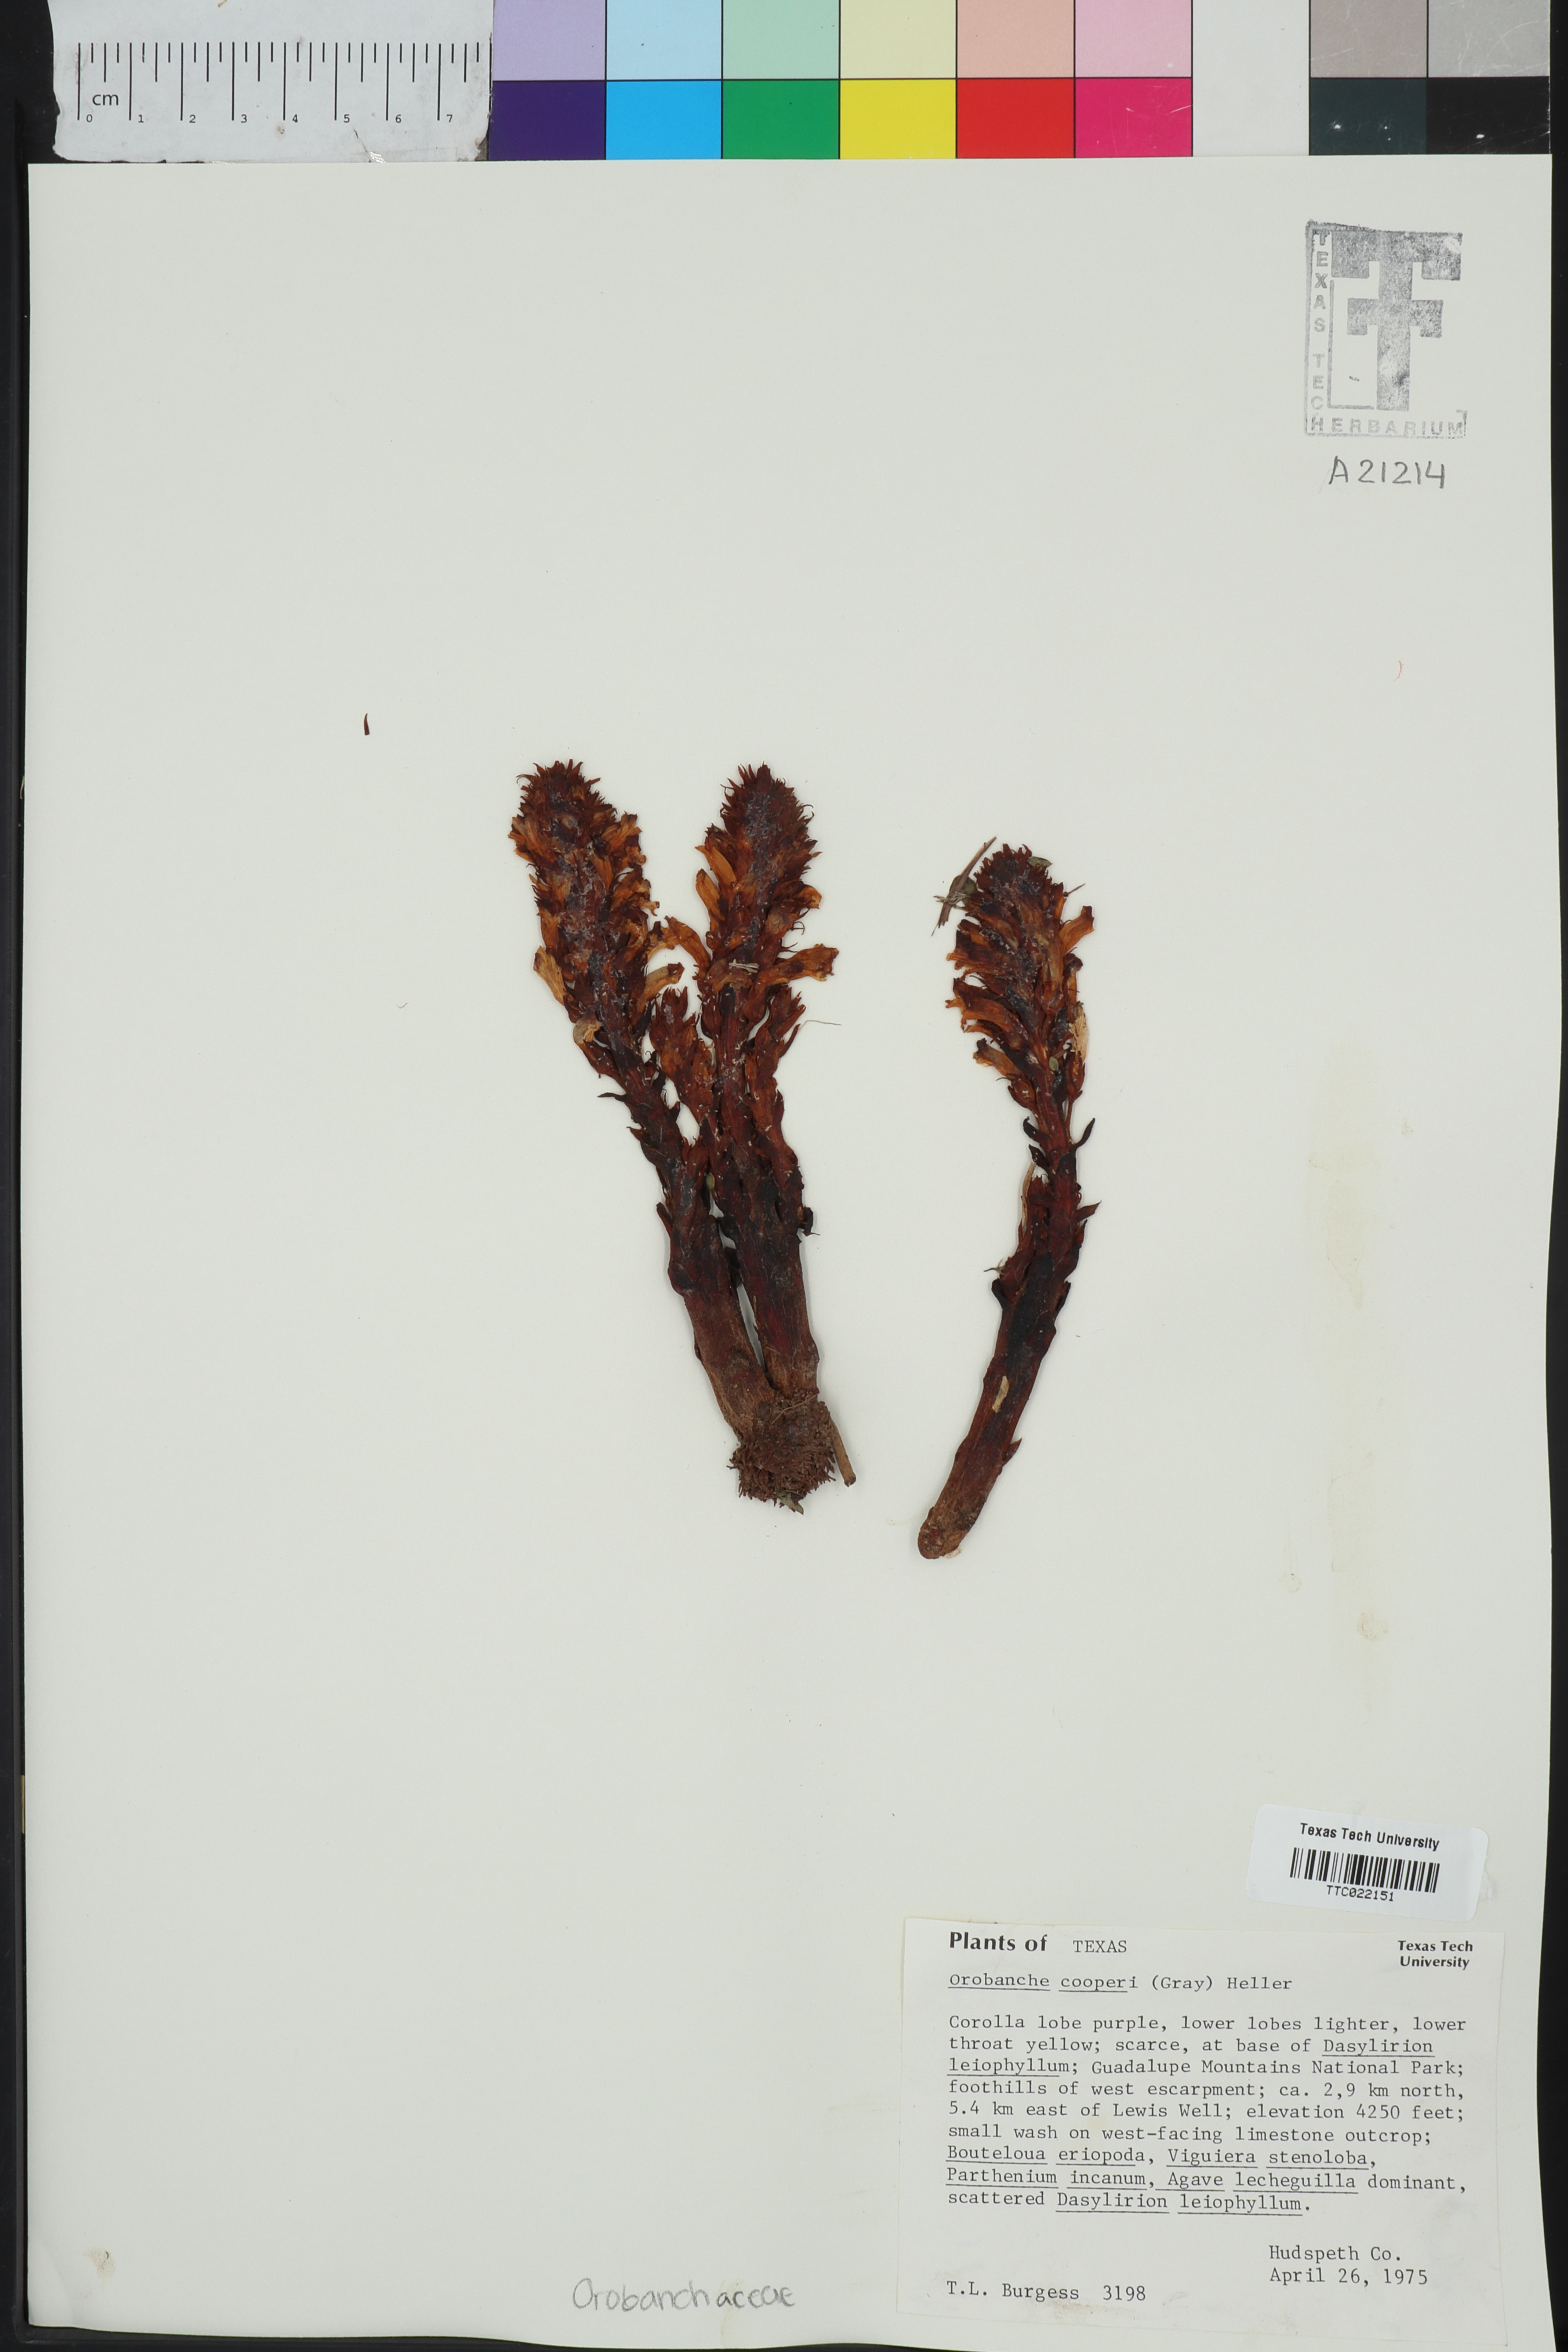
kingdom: Plantae
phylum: Tracheophyta
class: Magnoliopsida
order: Lamiales
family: Orobanchaceae
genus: Aphyllon
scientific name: Aphyllon cooperi
